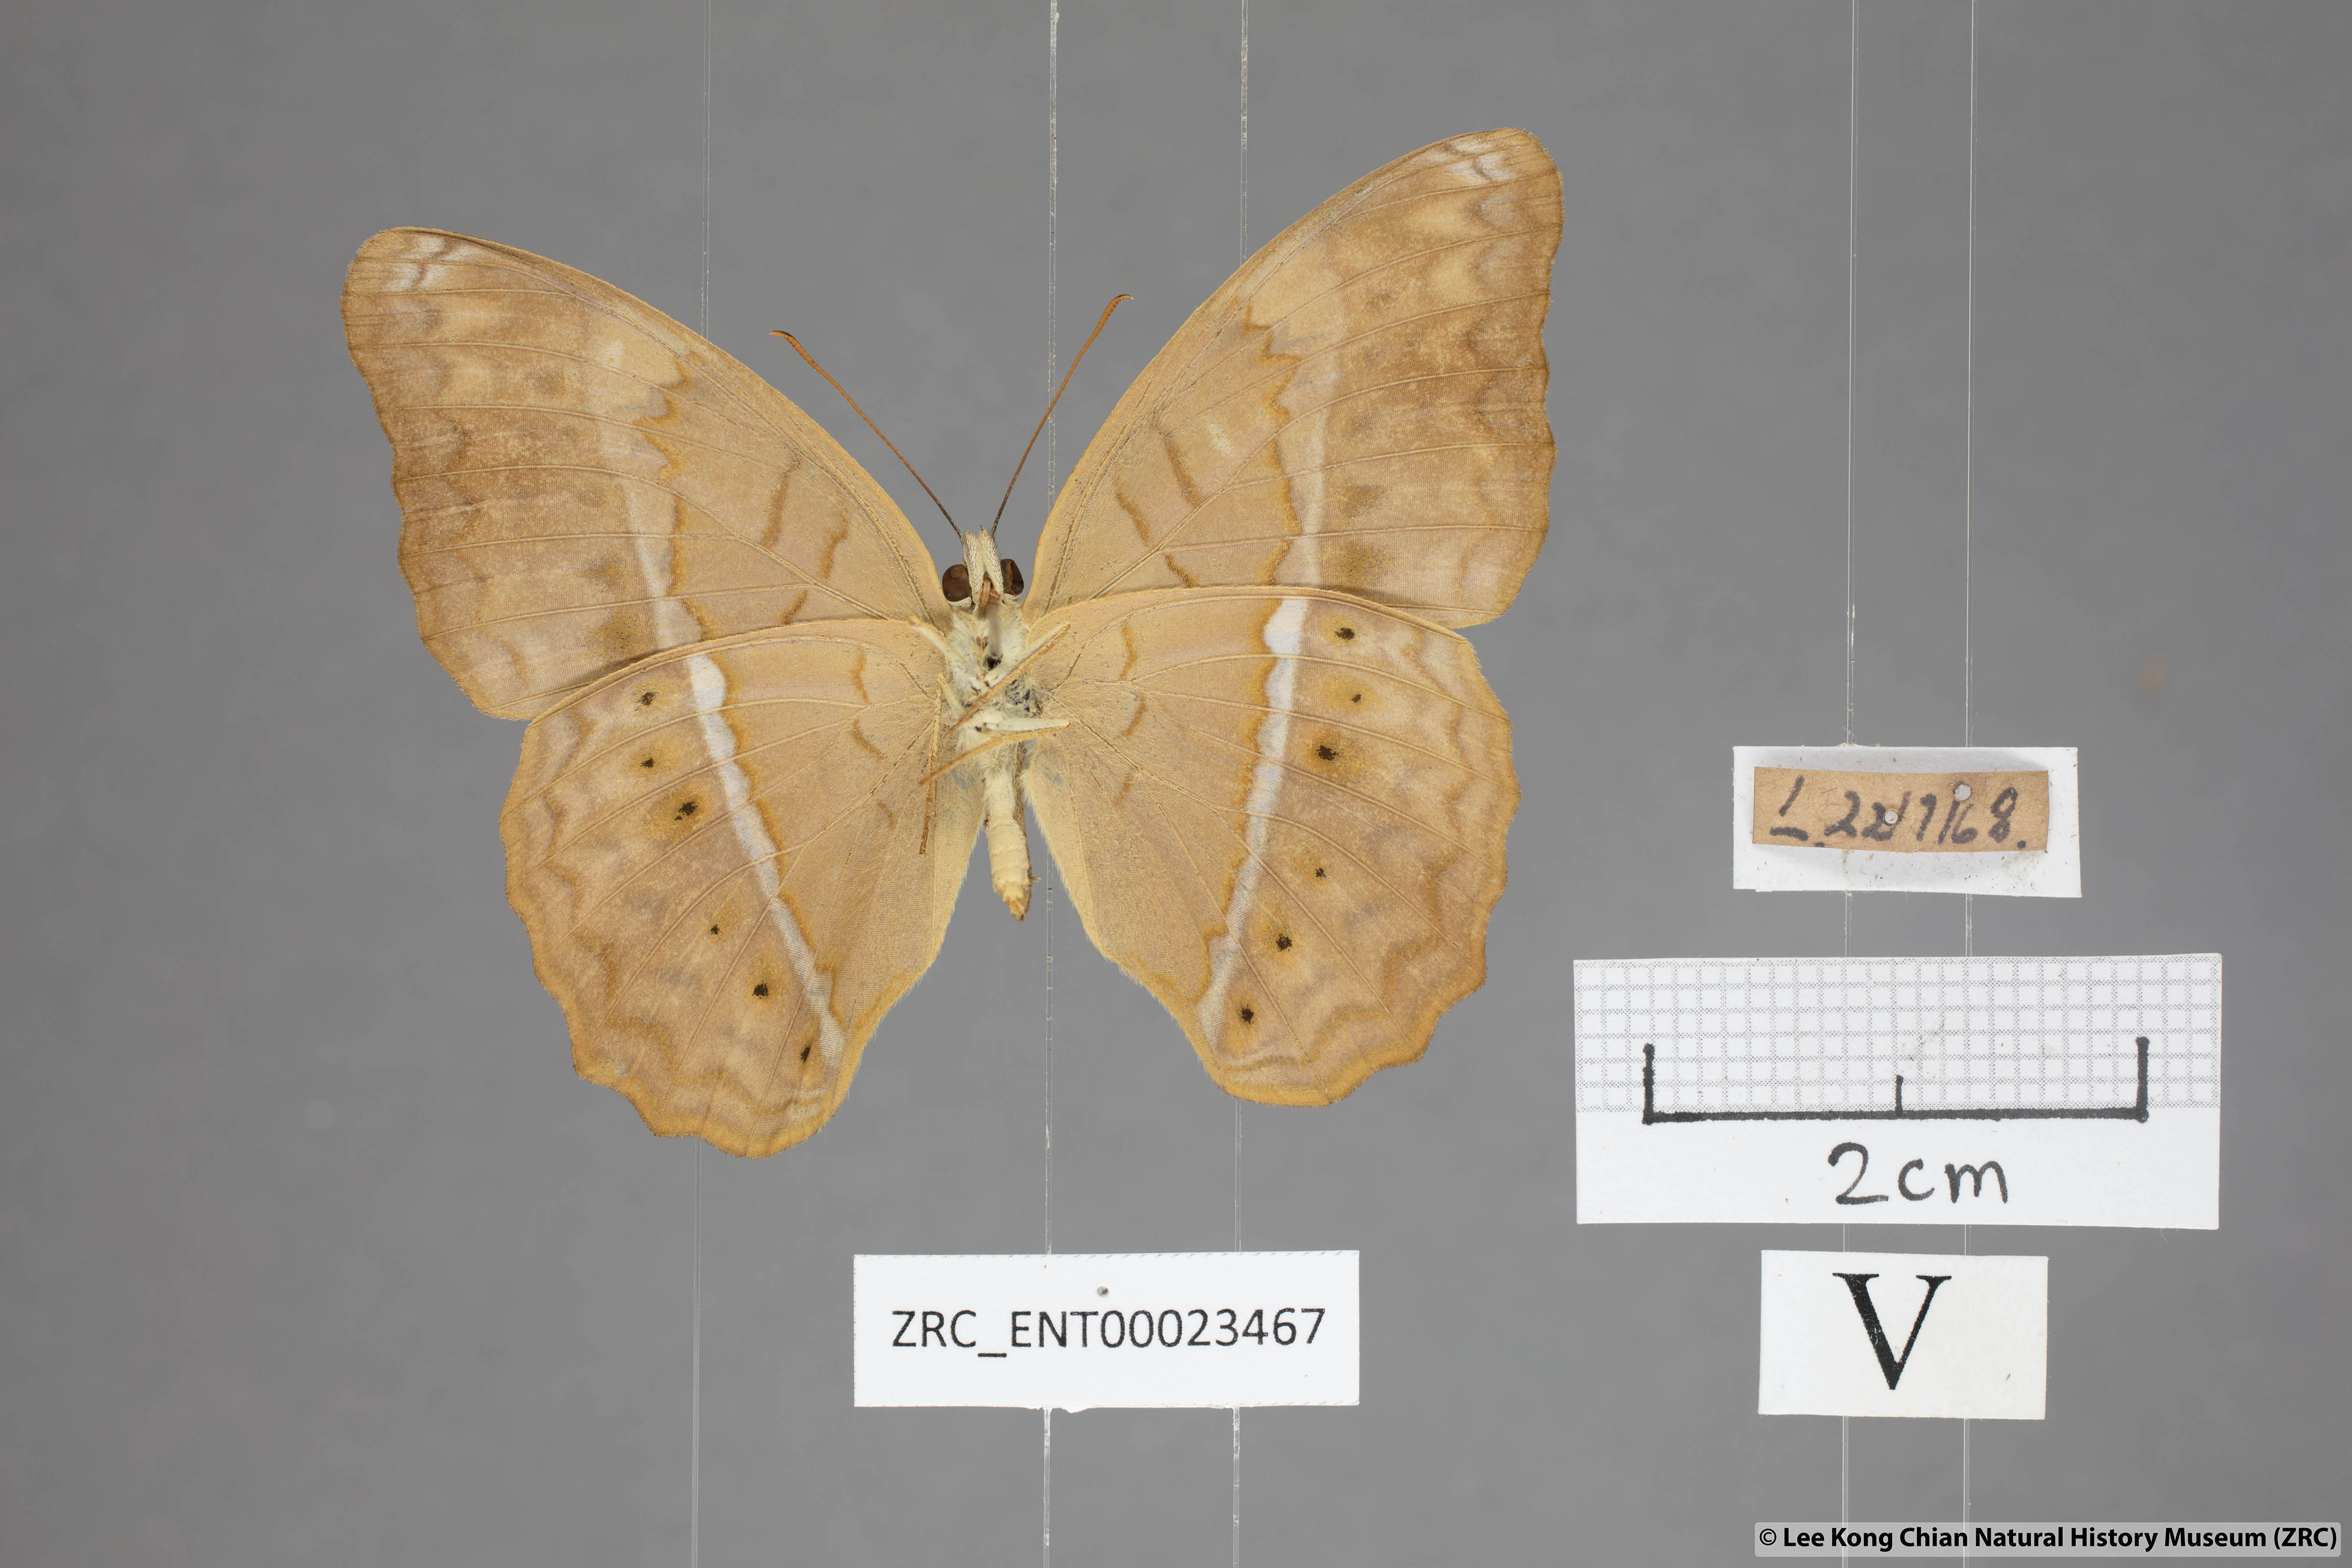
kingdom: Animalia
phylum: Arthropoda
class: Insecta
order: Lepidoptera
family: Nymphalidae
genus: Cirrochroa
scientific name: Cirrochroa surya
